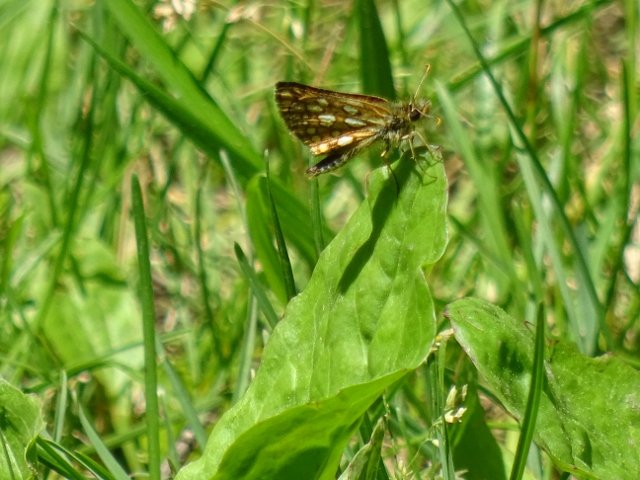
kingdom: Animalia
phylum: Arthropoda
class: Insecta
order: Lepidoptera
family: Hesperiidae
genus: Carterocephalus
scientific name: Carterocephalus palaemon
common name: Chequered Skipper
